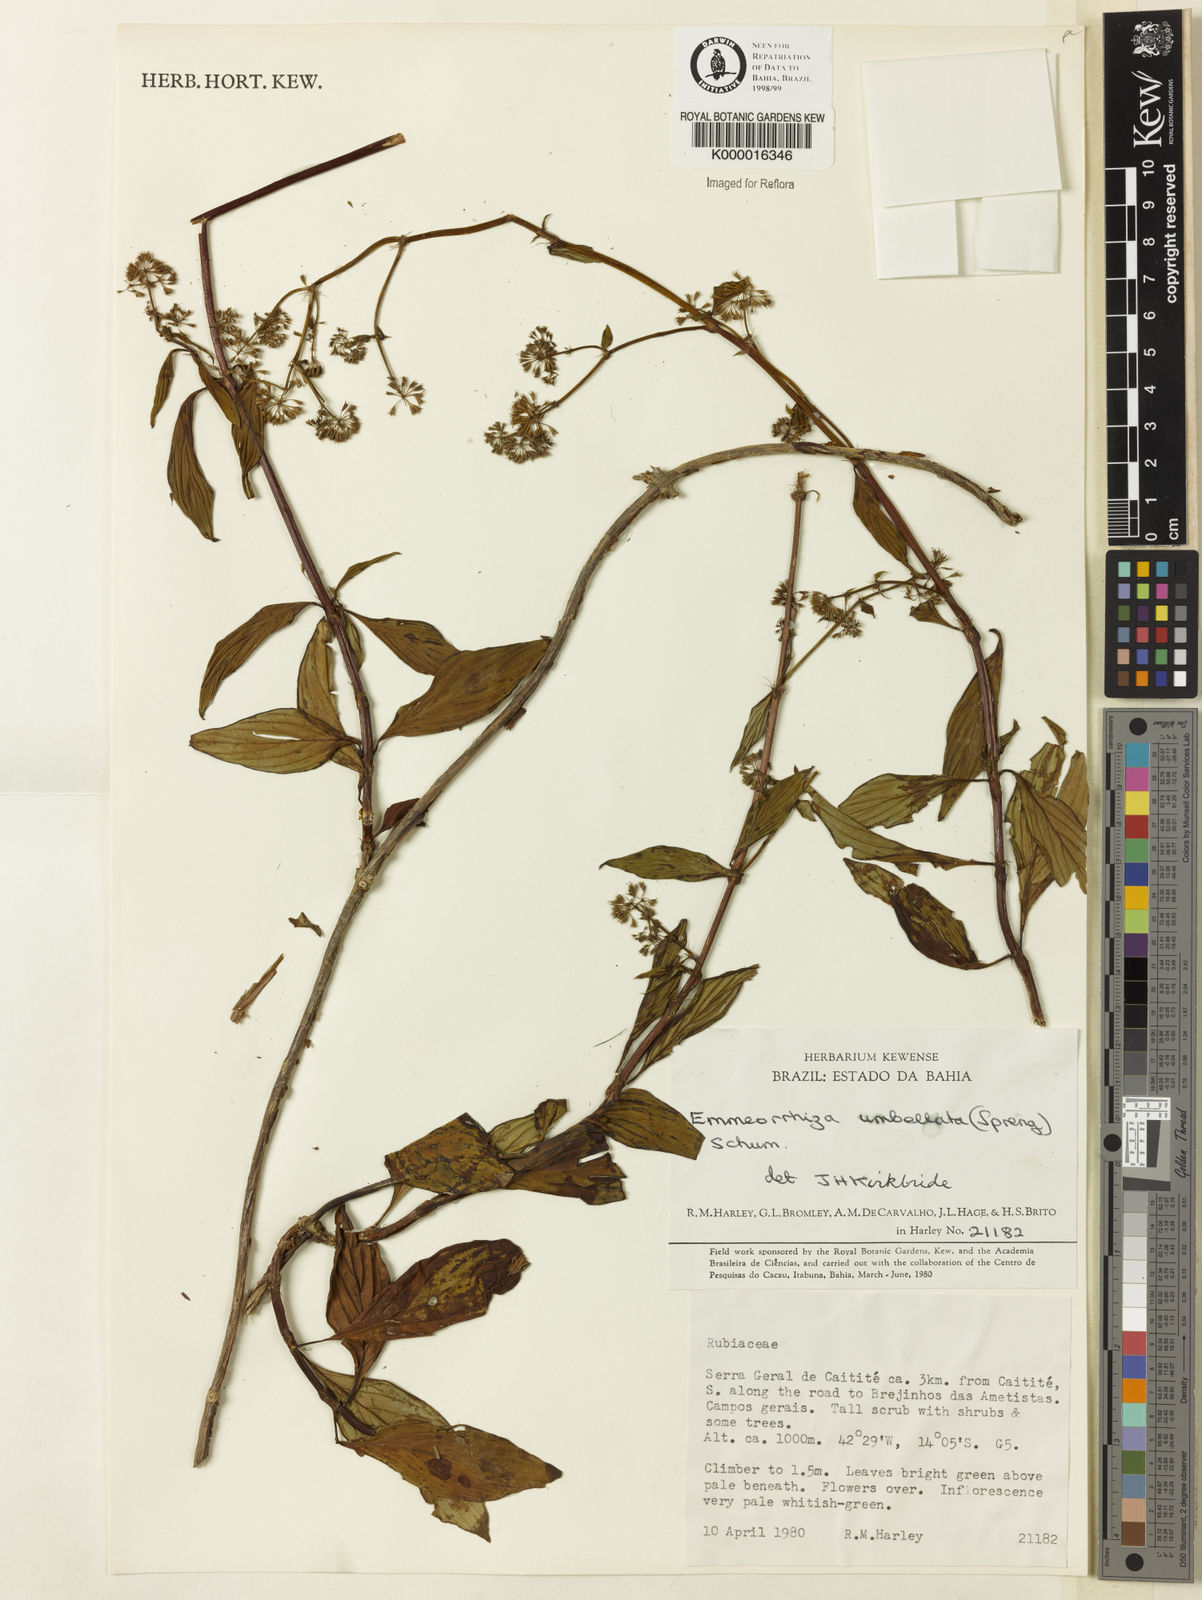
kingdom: Plantae
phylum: Tracheophyta
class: Magnoliopsida
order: Gentianales
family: Rubiaceae
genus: Emmeorhiza
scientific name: Emmeorhiza umbellata
